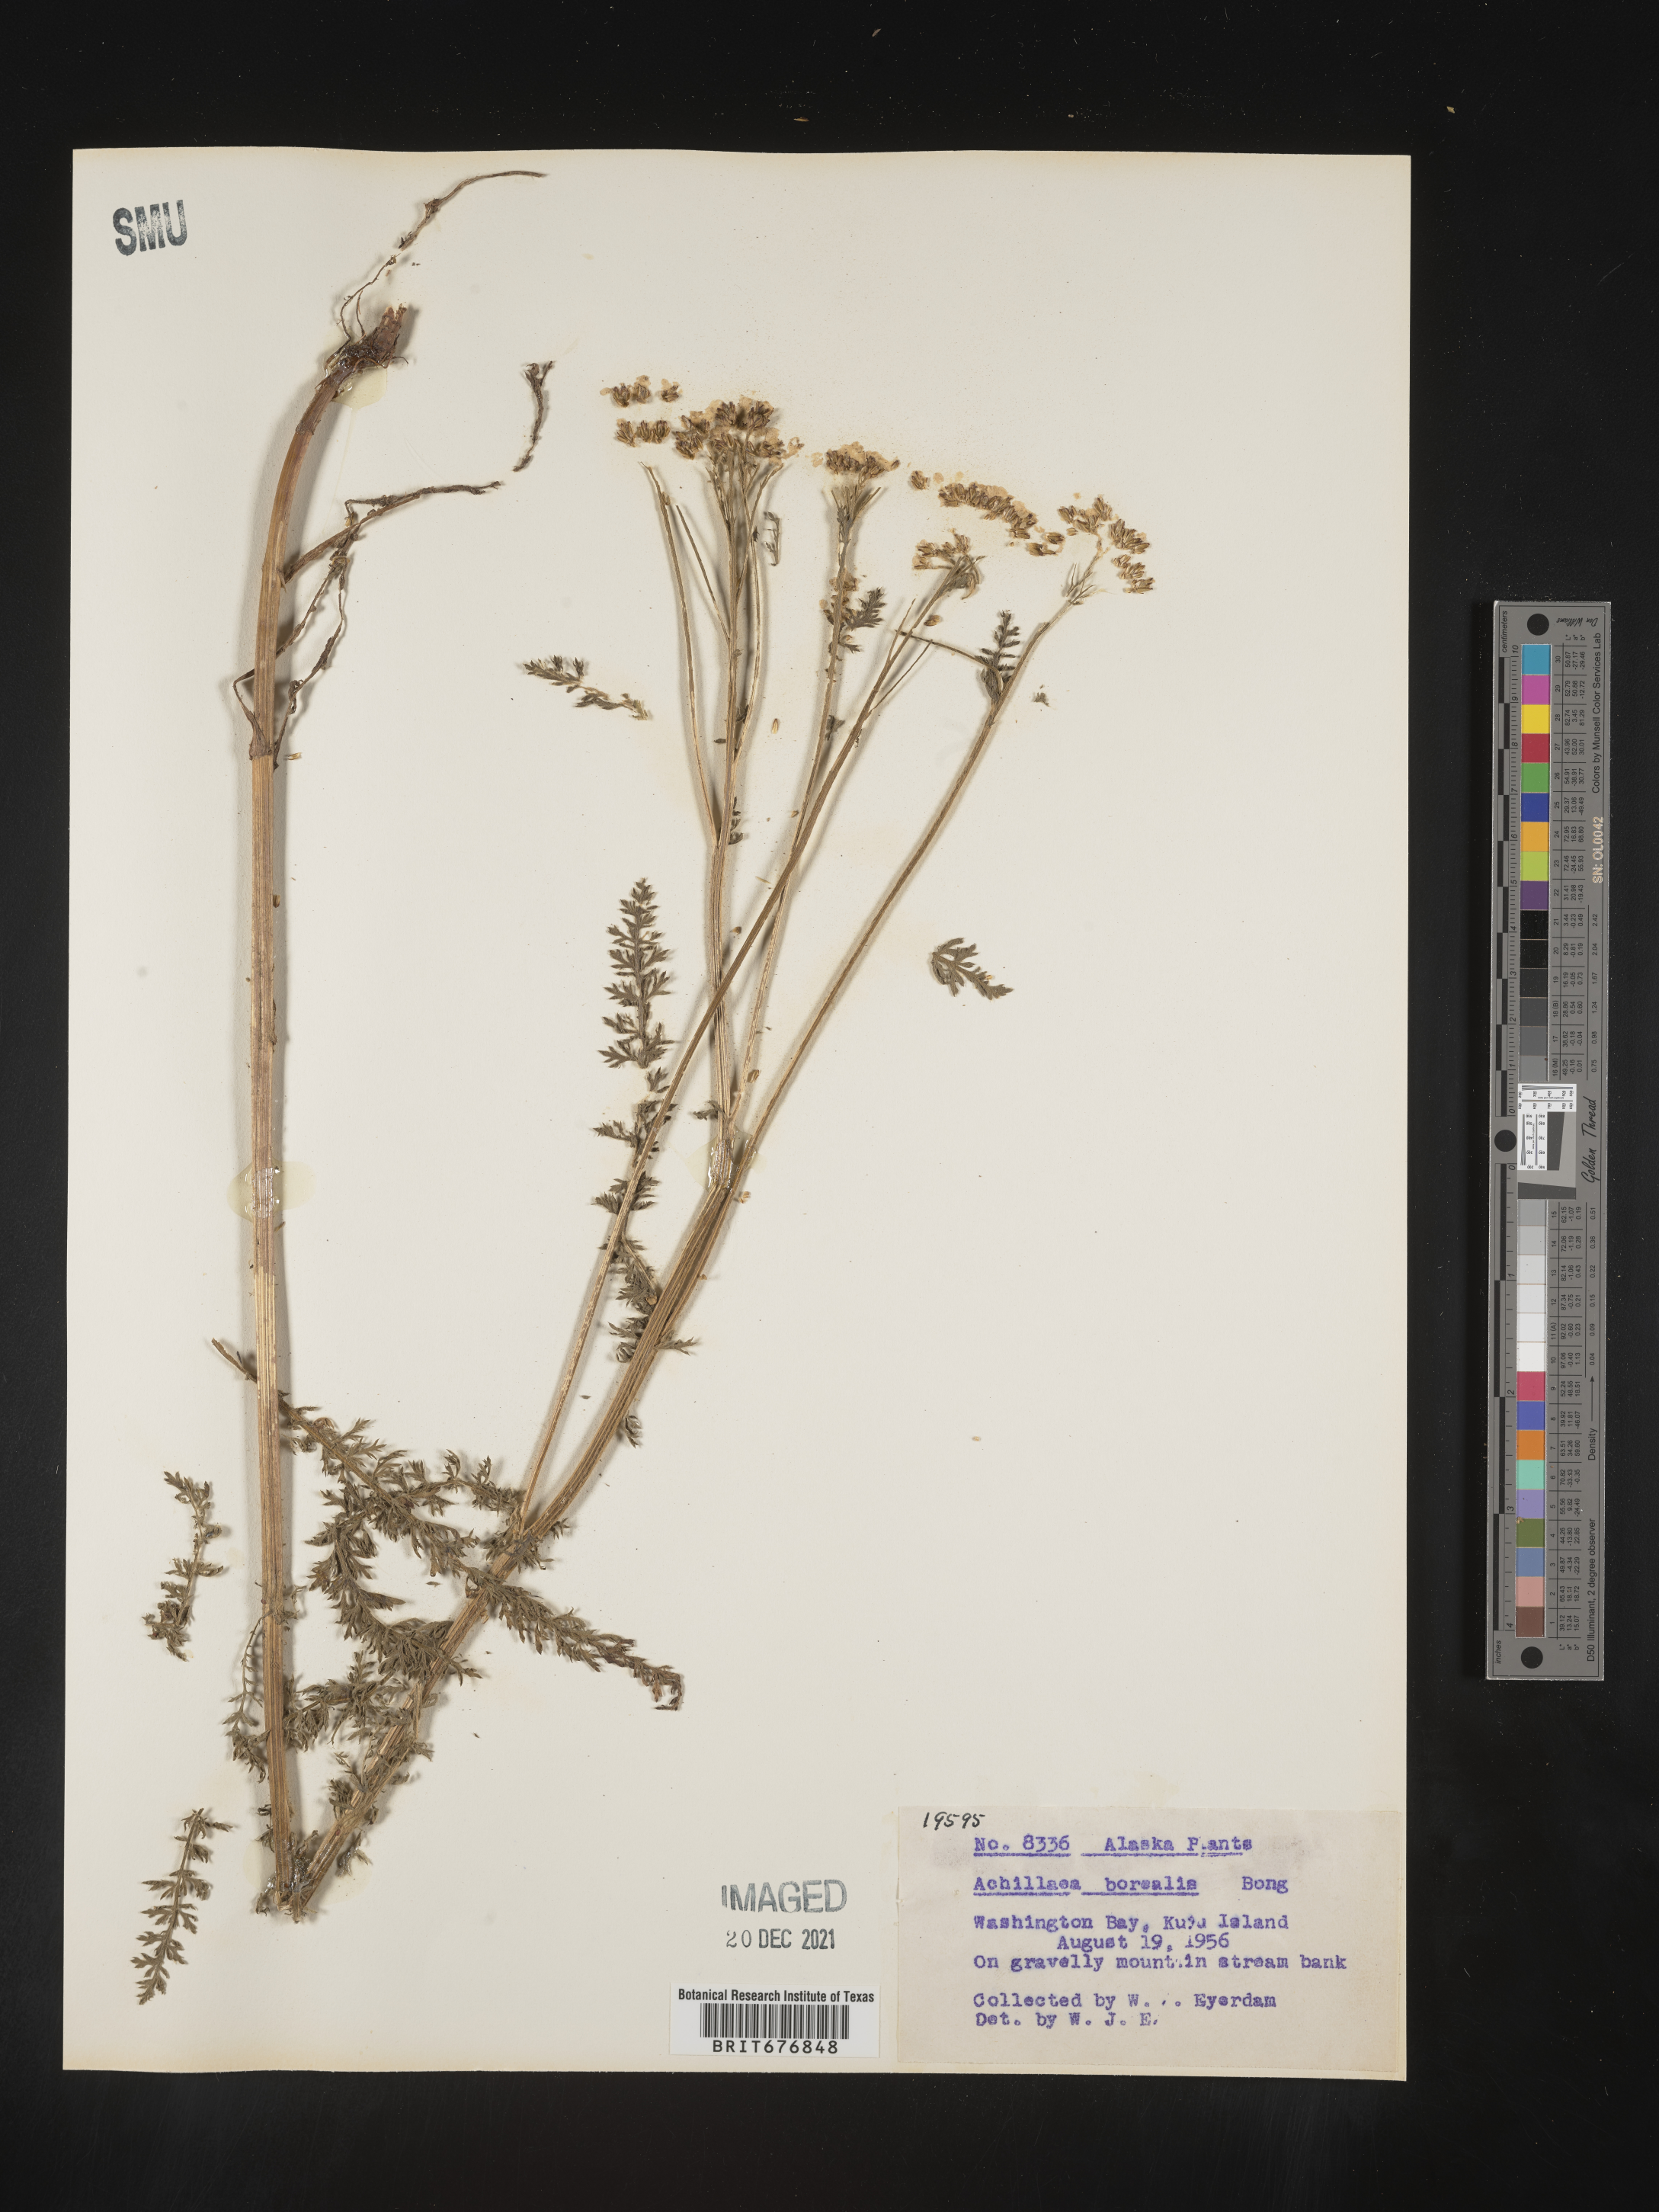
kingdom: Plantae
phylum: Tracheophyta
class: Magnoliopsida
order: Asterales
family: Asteraceae
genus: Achillea
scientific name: Achillea
